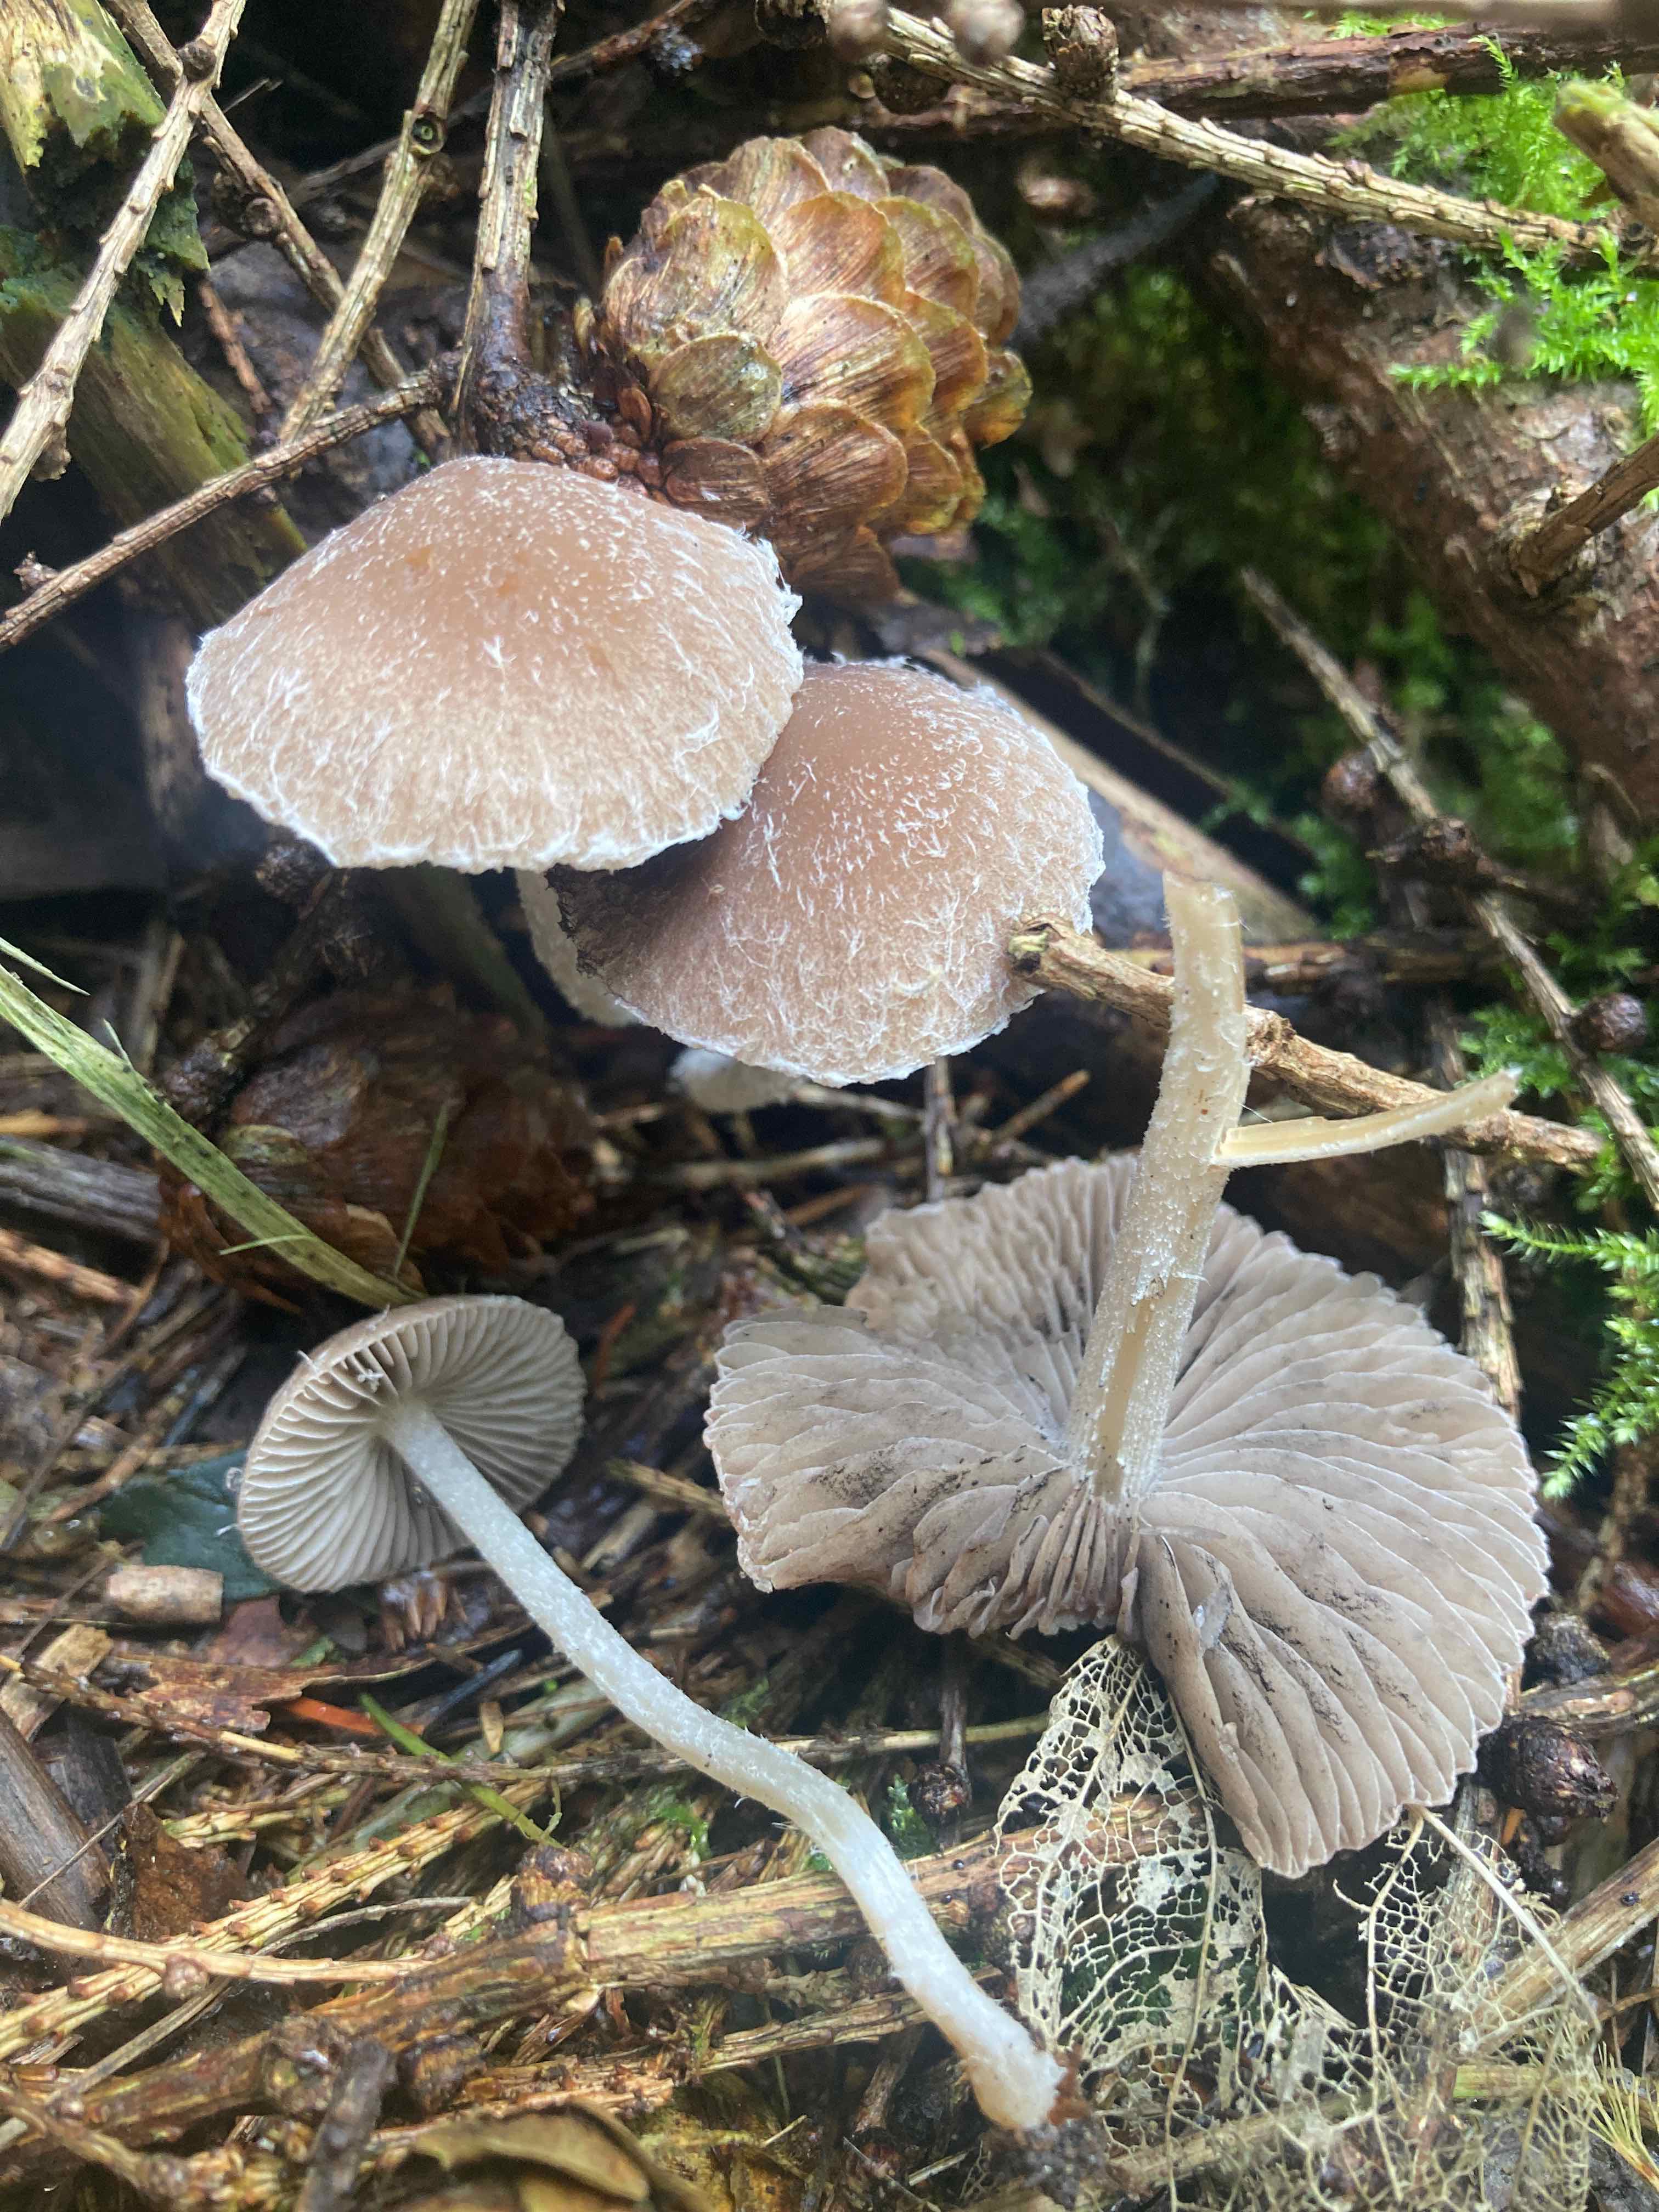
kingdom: Fungi
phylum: Basidiomycota
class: Agaricomycetes
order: Agaricales
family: Psathyrellaceae
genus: Psathyrella
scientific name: Psathyrella fibrillosa
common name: almindelig mørkhat
